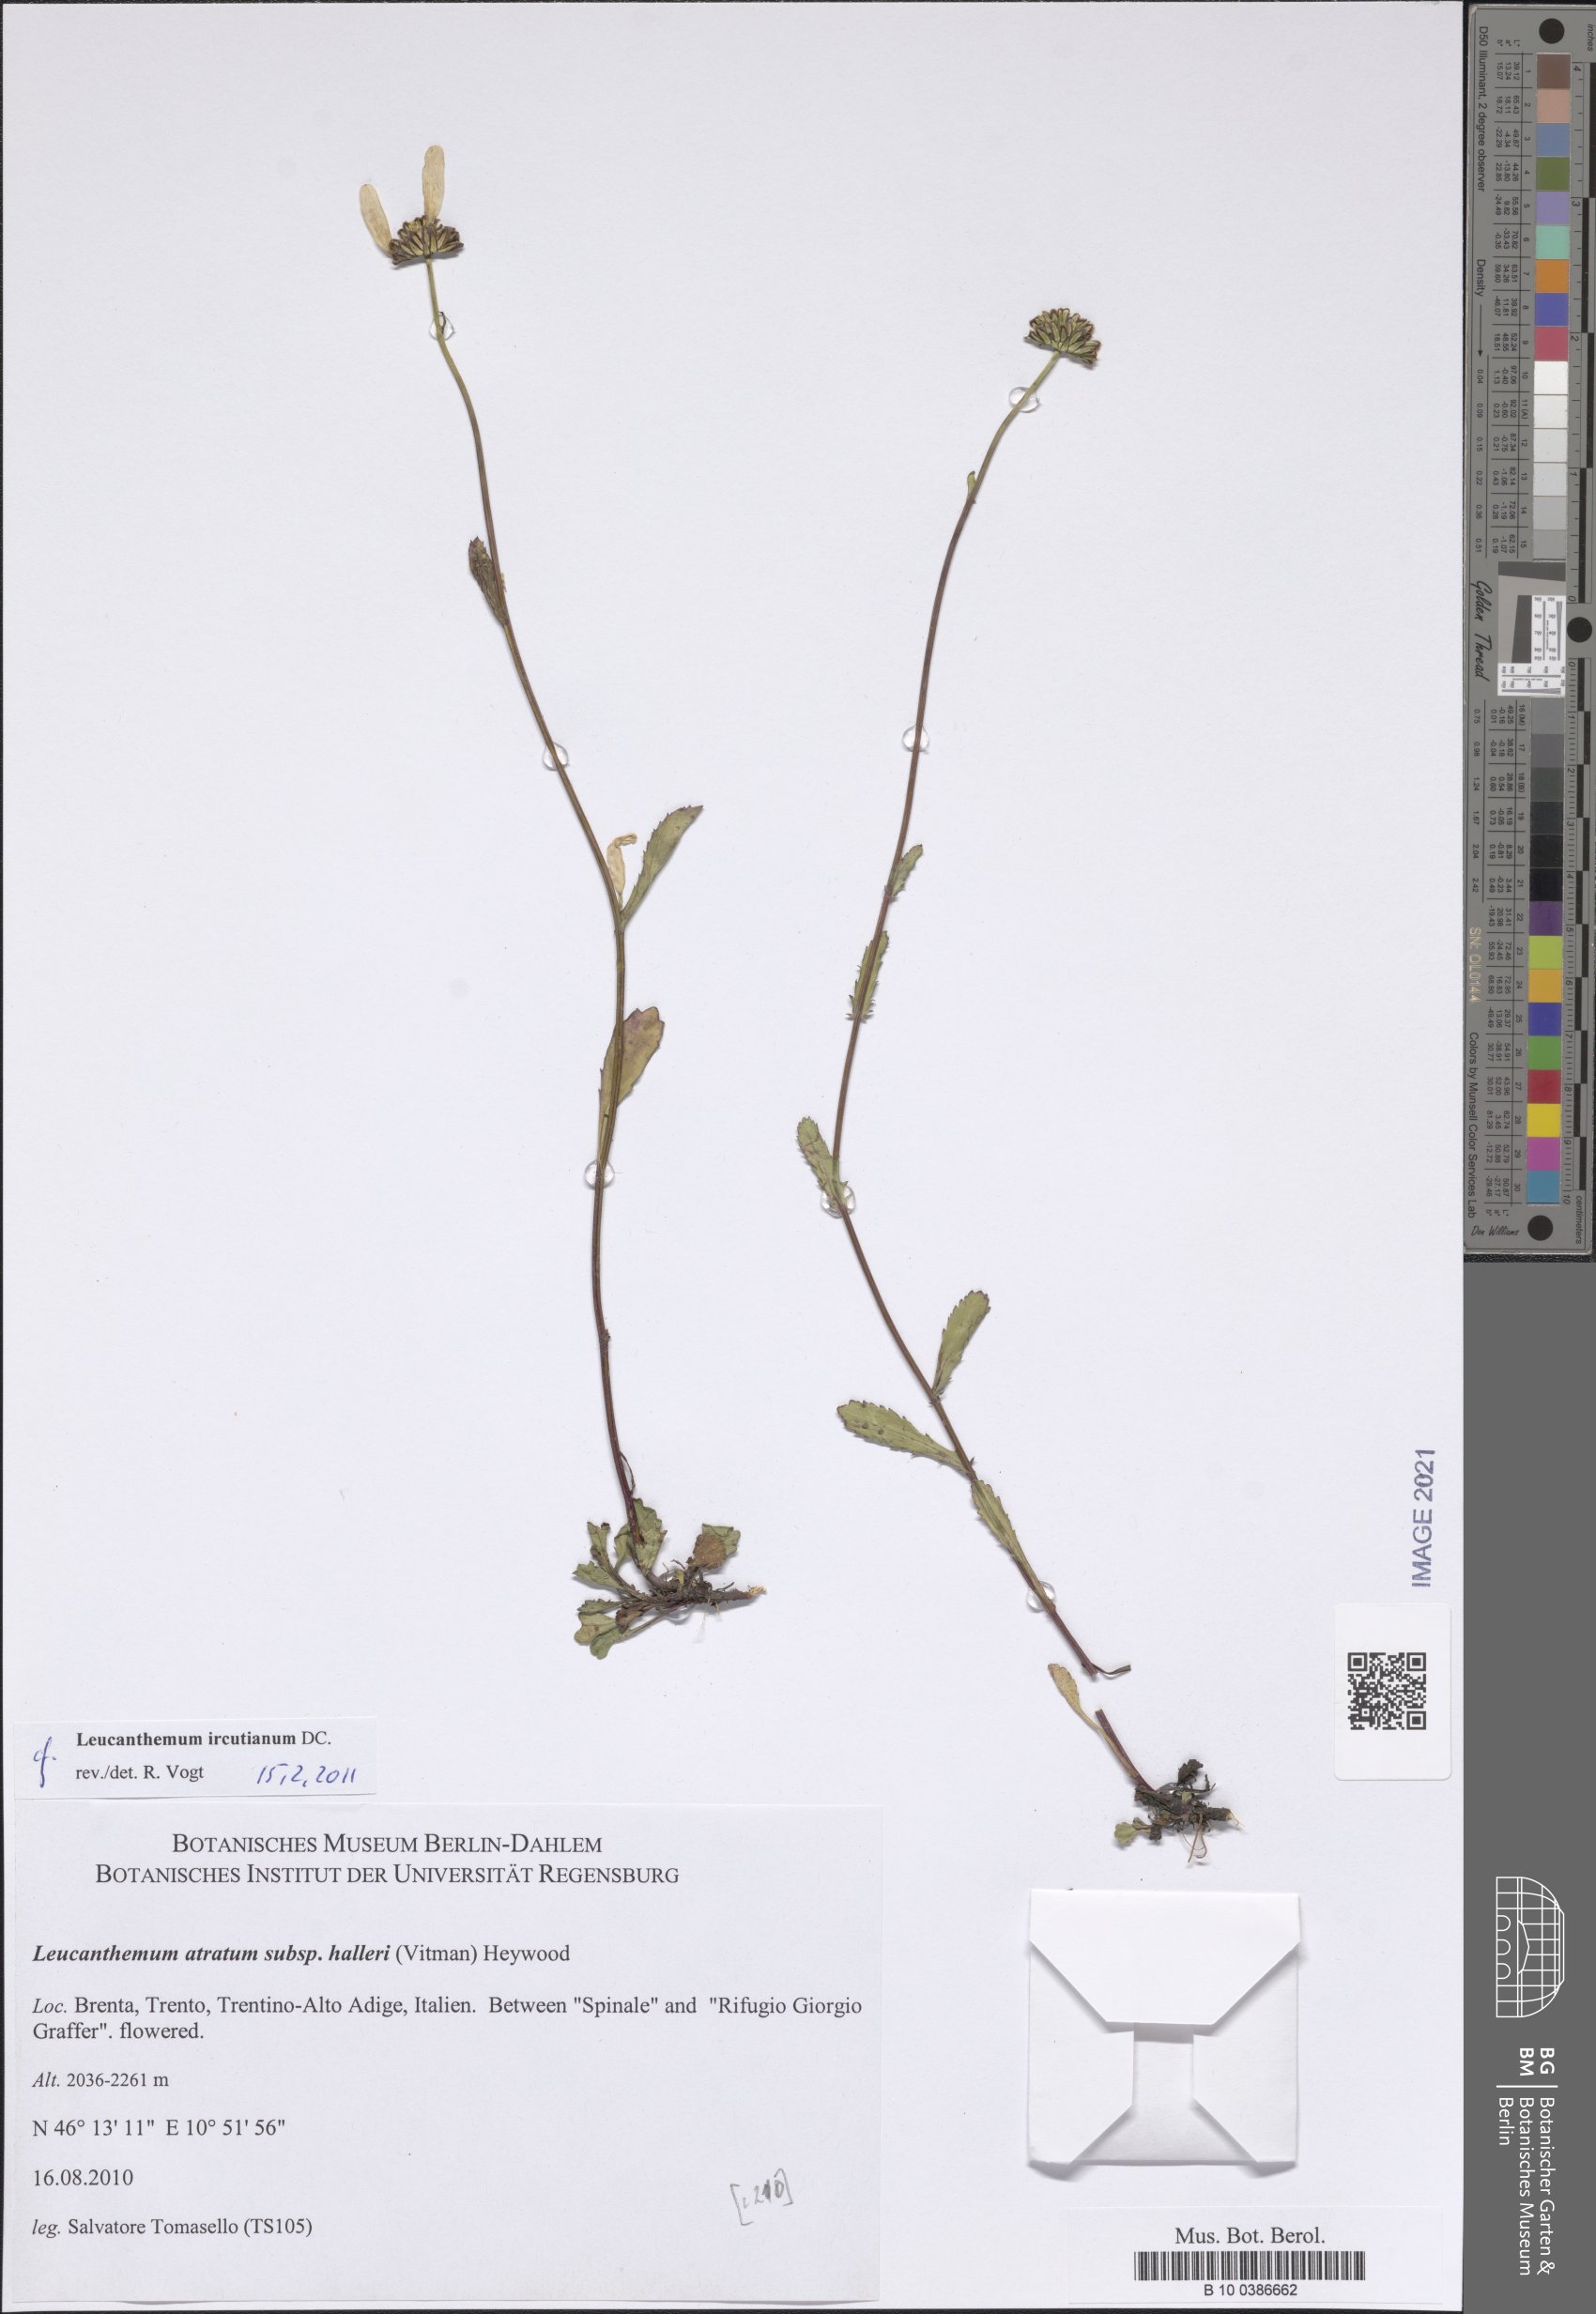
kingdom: Plantae
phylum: Tracheophyta
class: Magnoliopsida
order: Asterales
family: Asteraceae
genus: Leucanthemum
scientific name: Leucanthemum ircutianum
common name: Daisy
